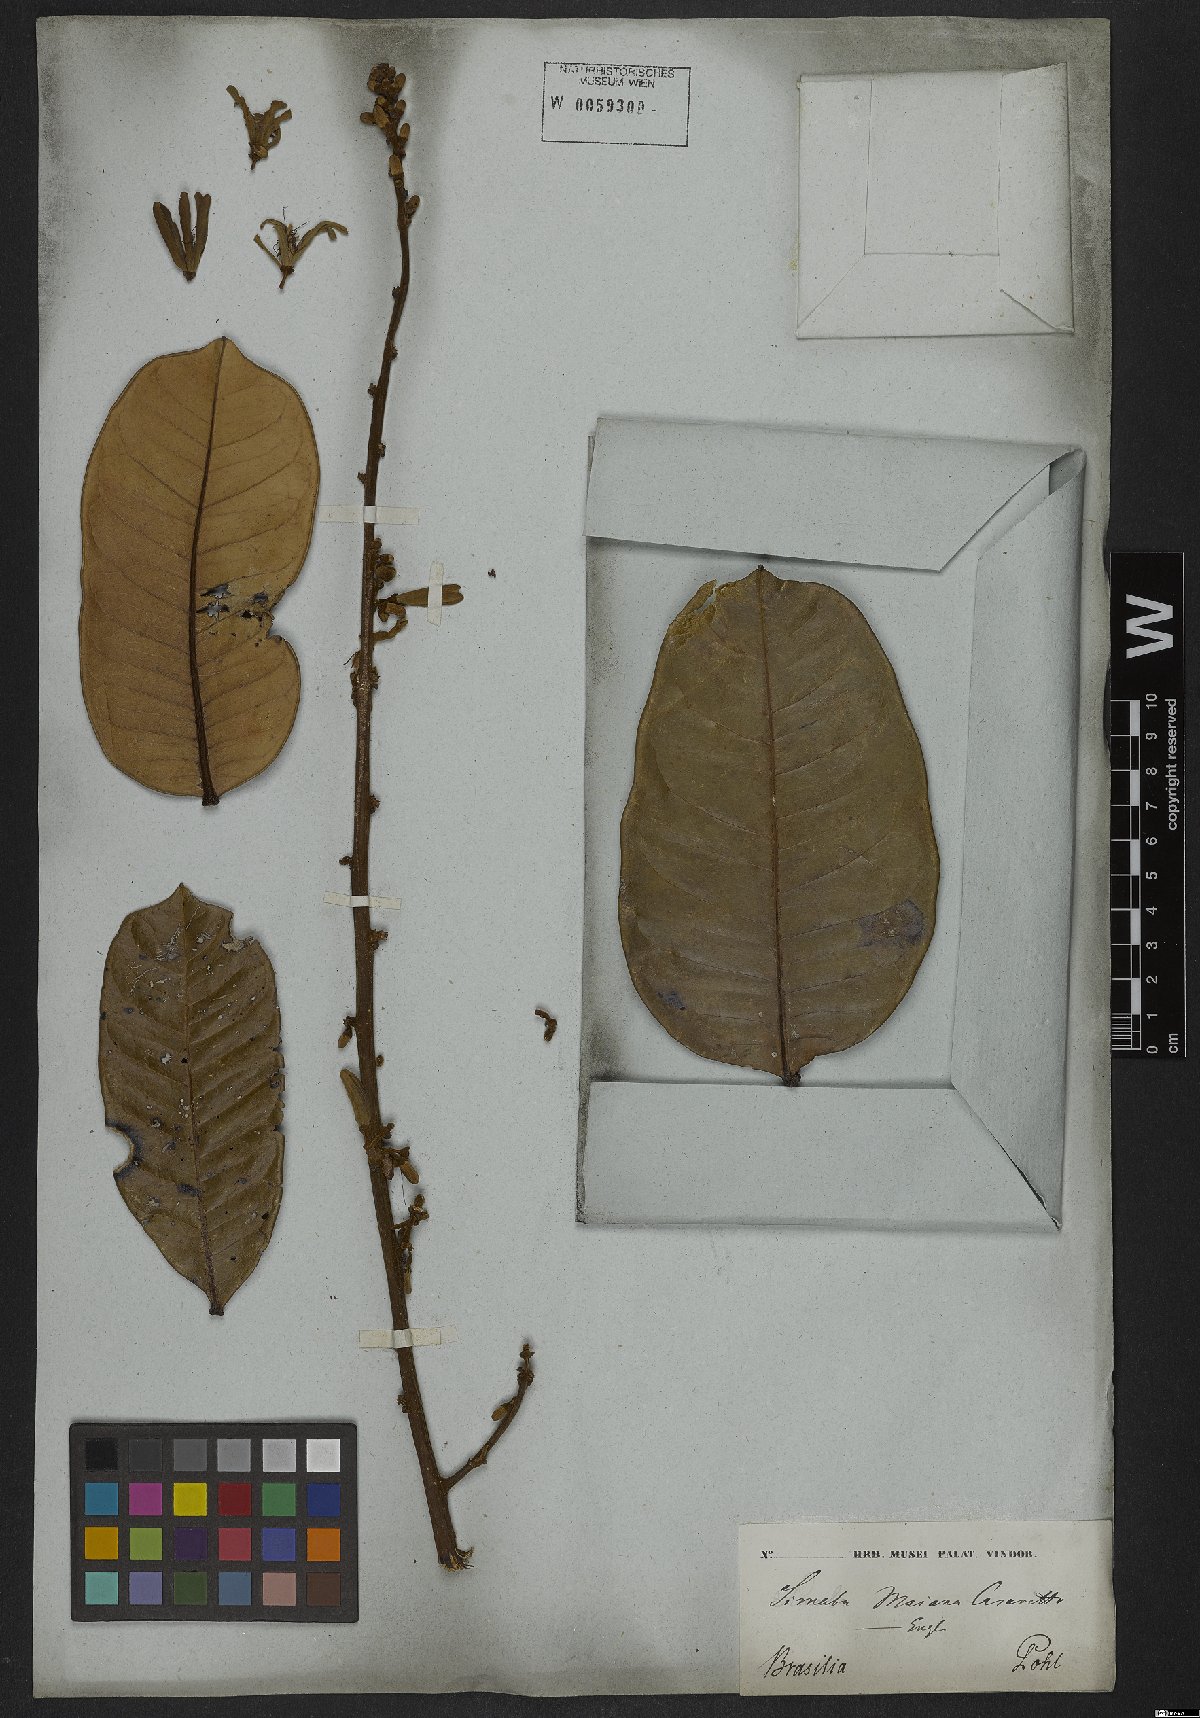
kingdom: Plantae
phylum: Tracheophyta
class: Magnoliopsida
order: Sapindales
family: Simaroubaceae
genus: Homalolepis
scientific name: Homalolepis maiana
